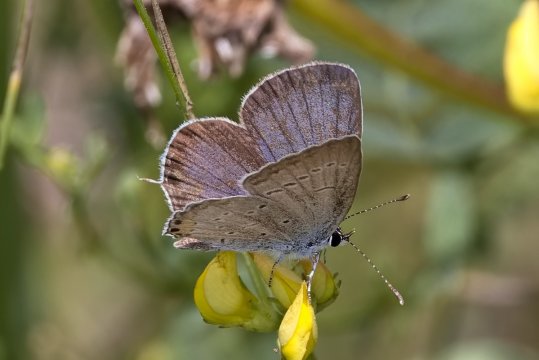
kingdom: Animalia
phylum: Arthropoda
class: Insecta
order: Lepidoptera
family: Lycaenidae
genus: Elkalyce
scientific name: Elkalyce comyntas
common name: Eastern Tailed-Blue
